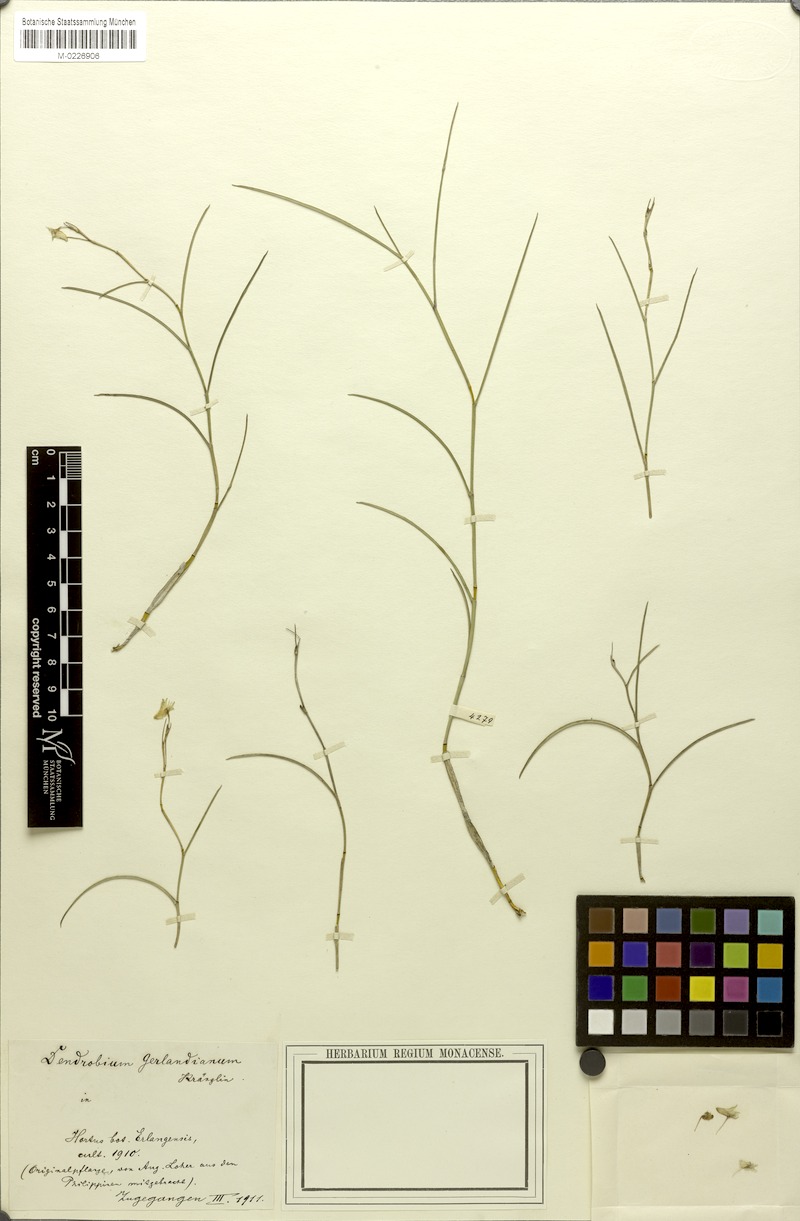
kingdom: Plantae
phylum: Tracheophyta
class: Liliopsida
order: Asparagales
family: Orchidaceae
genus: Dendrobium
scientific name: Dendrobium gerlandianum
